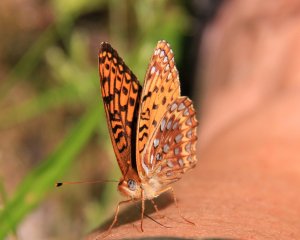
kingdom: Animalia
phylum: Arthropoda
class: Insecta
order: Lepidoptera
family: Nymphalidae
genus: Speyeria
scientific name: Speyeria atlantis
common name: Atlantis Fritillary
